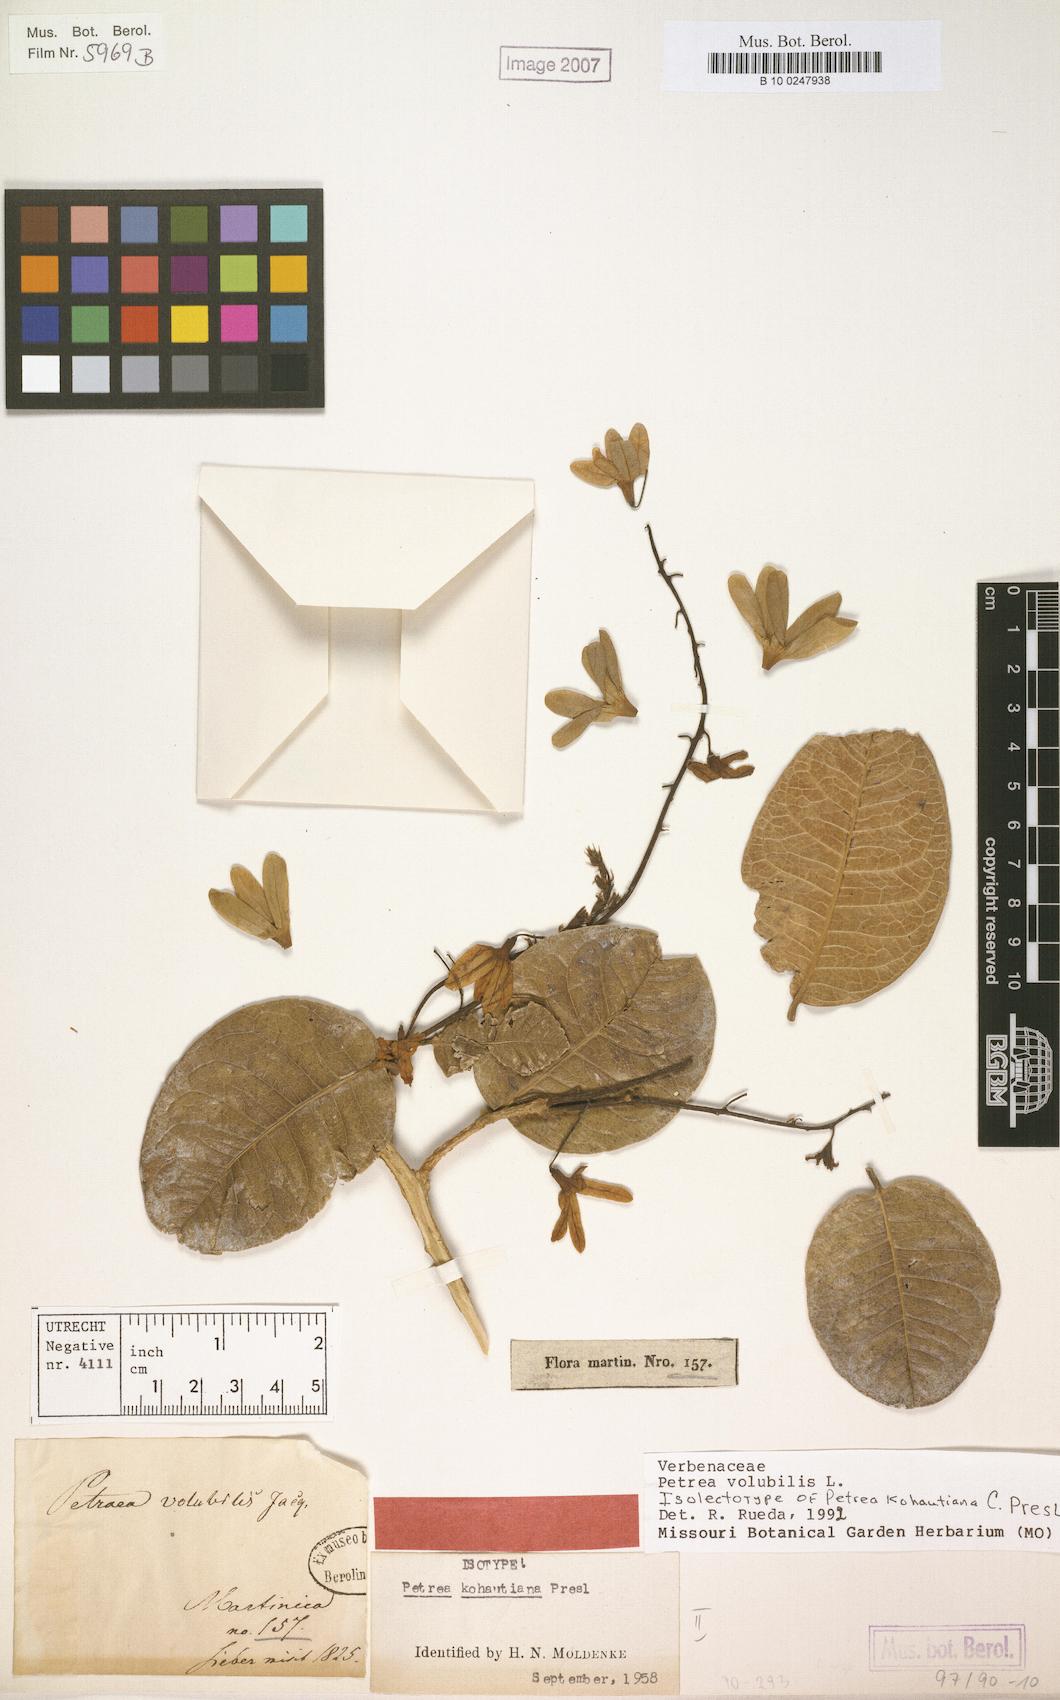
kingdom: Plantae
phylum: Tracheophyta
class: Magnoliopsida
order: Lamiales
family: Verbenaceae
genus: Petrea
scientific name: Petrea volubilis
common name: Queen's-wreath
